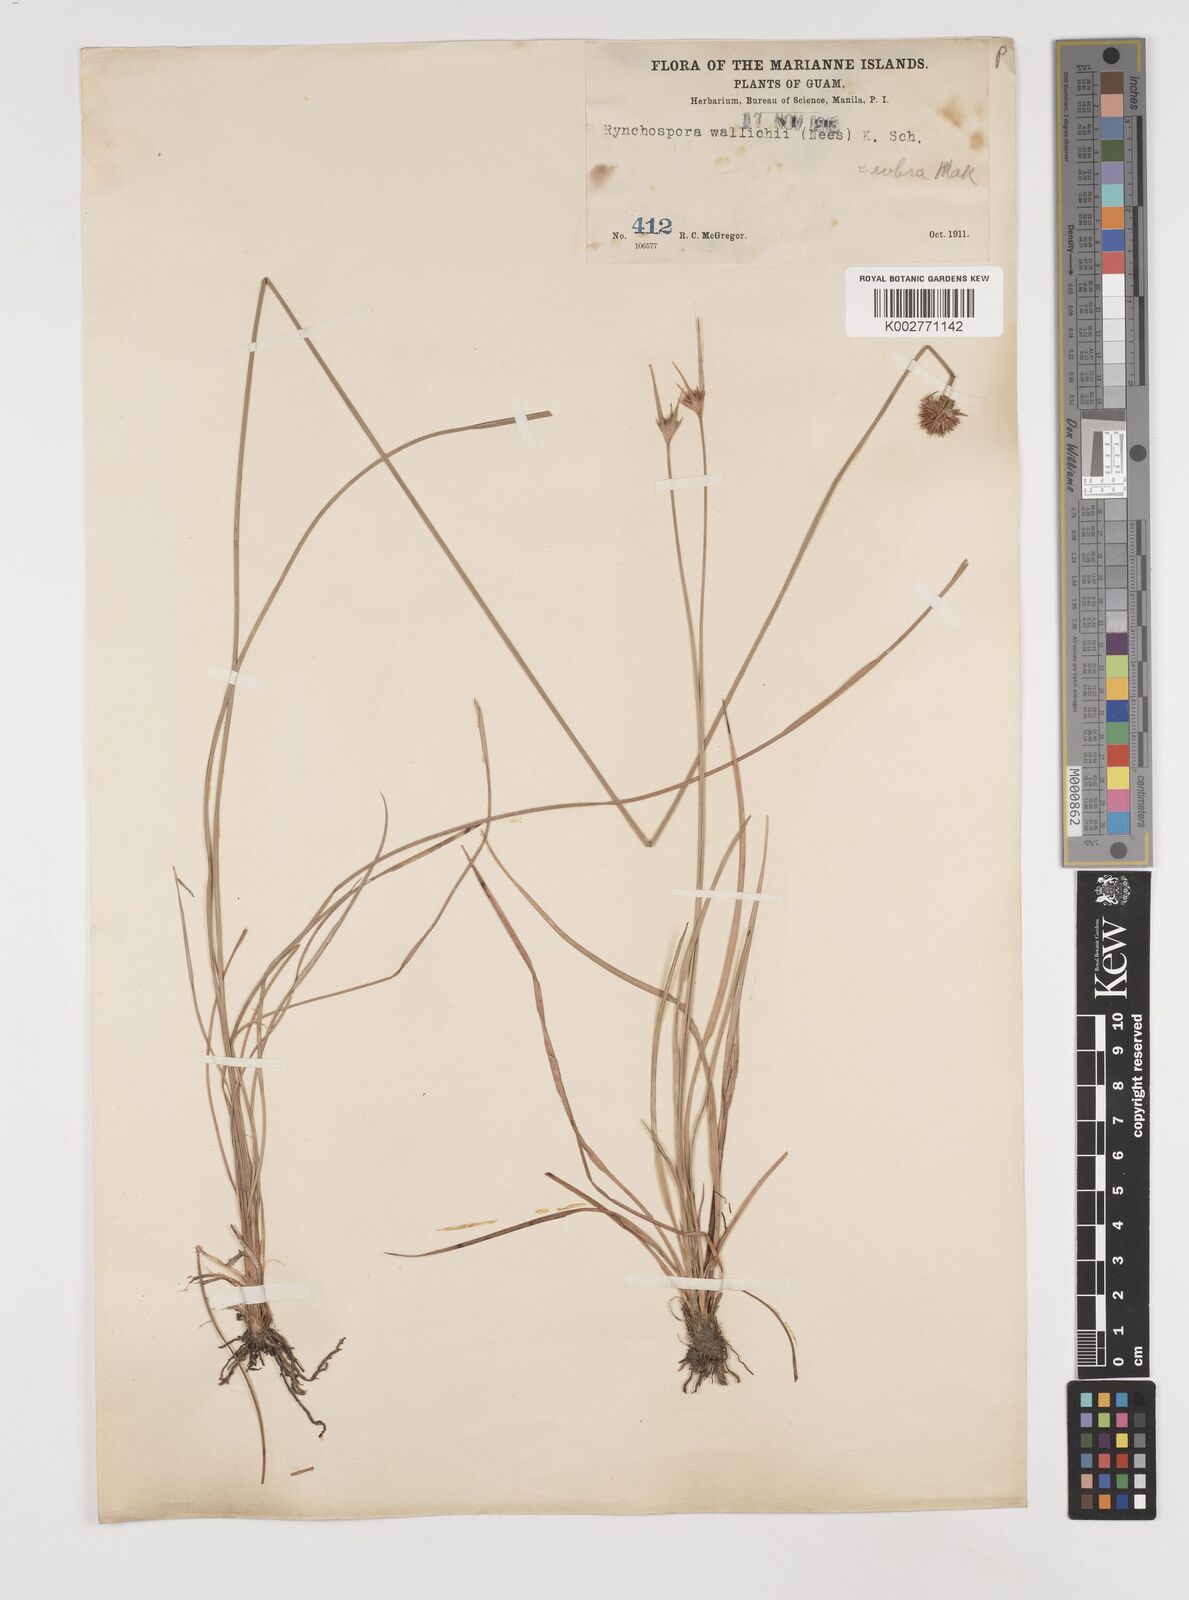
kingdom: Plantae
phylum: Tracheophyta
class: Liliopsida
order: Poales
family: Cyperaceae
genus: Rhynchospora
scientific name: Rhynchospora rubra
